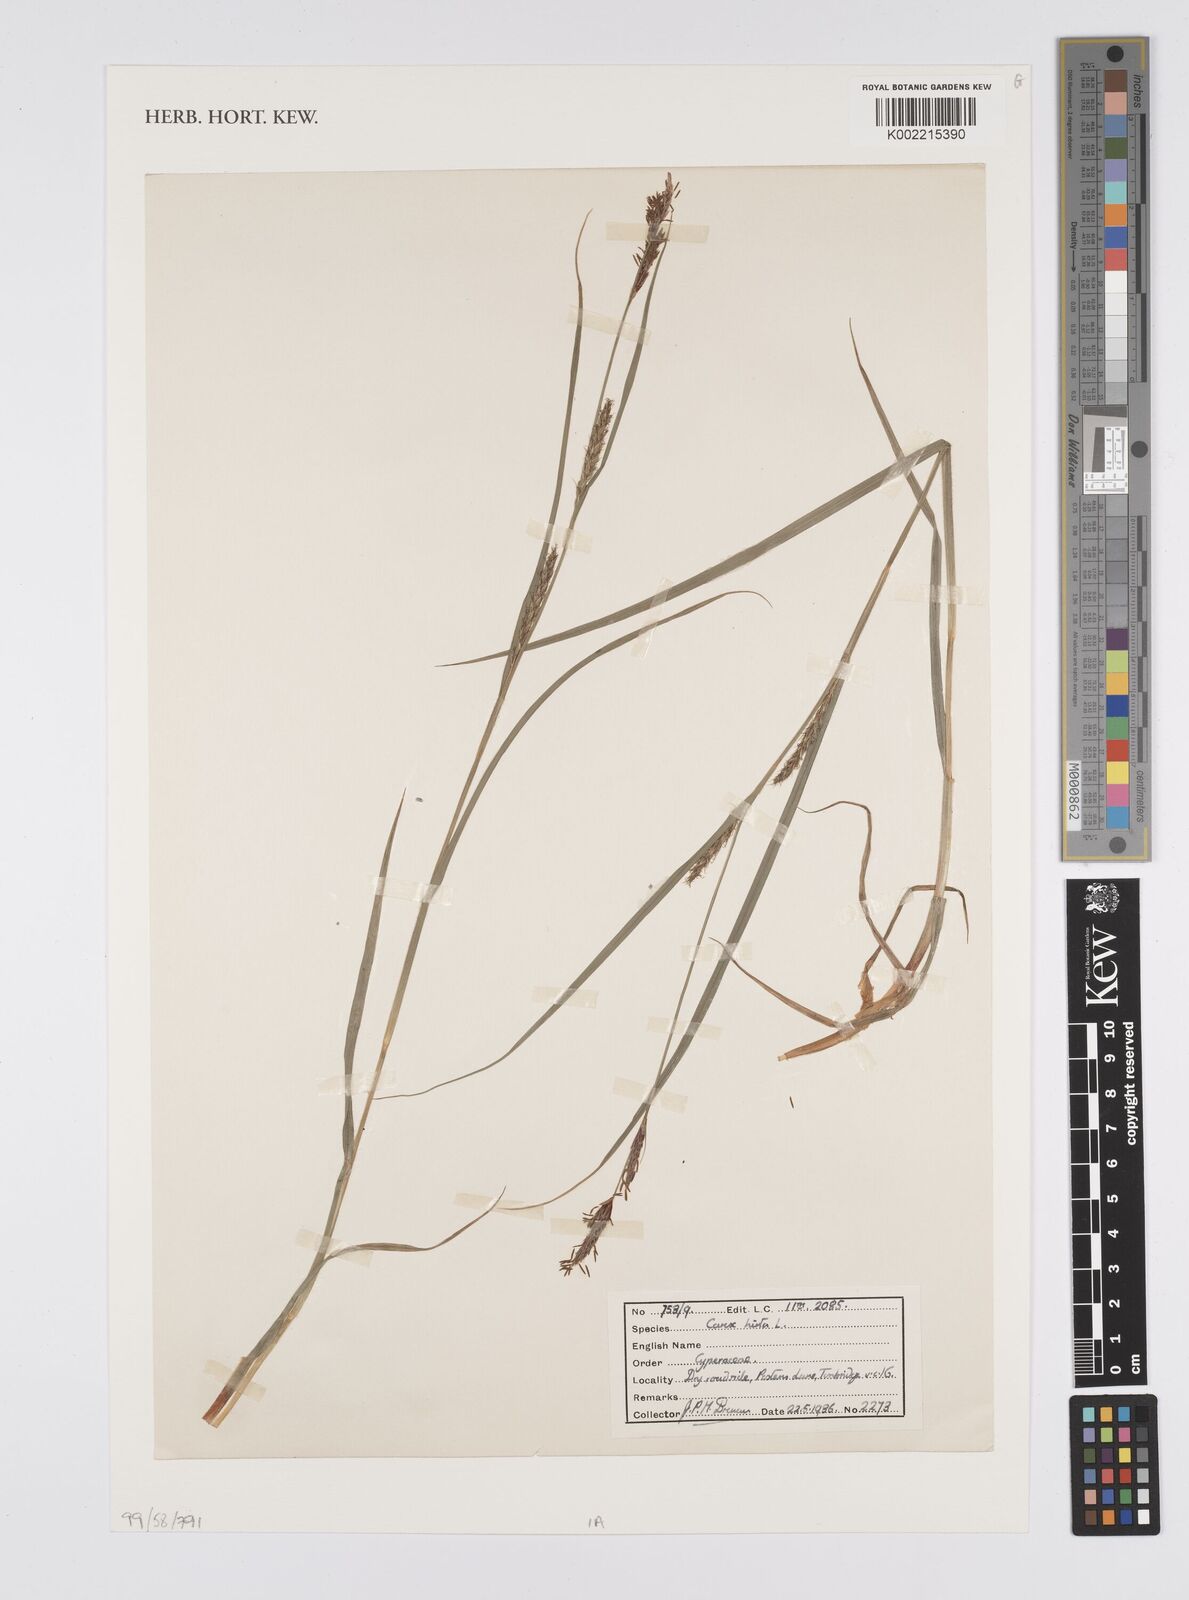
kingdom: Plantae
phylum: Tracheophyta
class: Liliopsida
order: Poales
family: Cyperaceae
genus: Carex
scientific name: Carex hirta
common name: Hairy sedge
